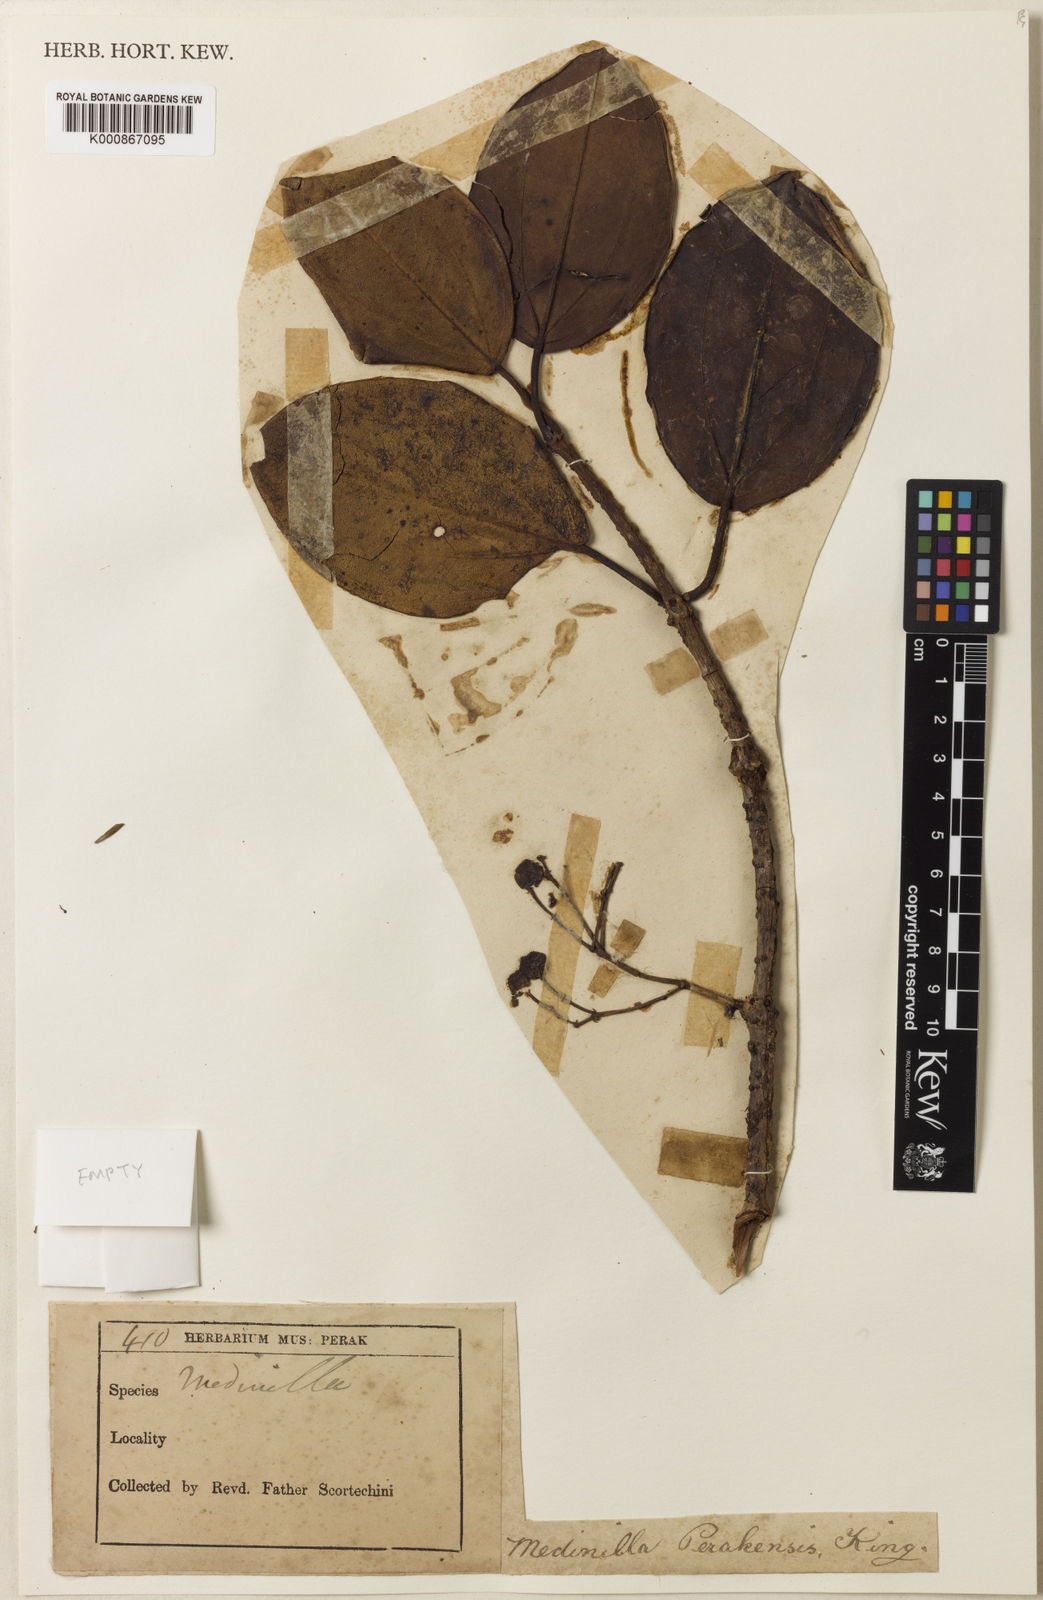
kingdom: Plantae
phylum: Tracheophyta
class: Magnoliopsida
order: Myrtales
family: Melastomataceae
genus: Medinilla
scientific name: Medinilla clarkei
